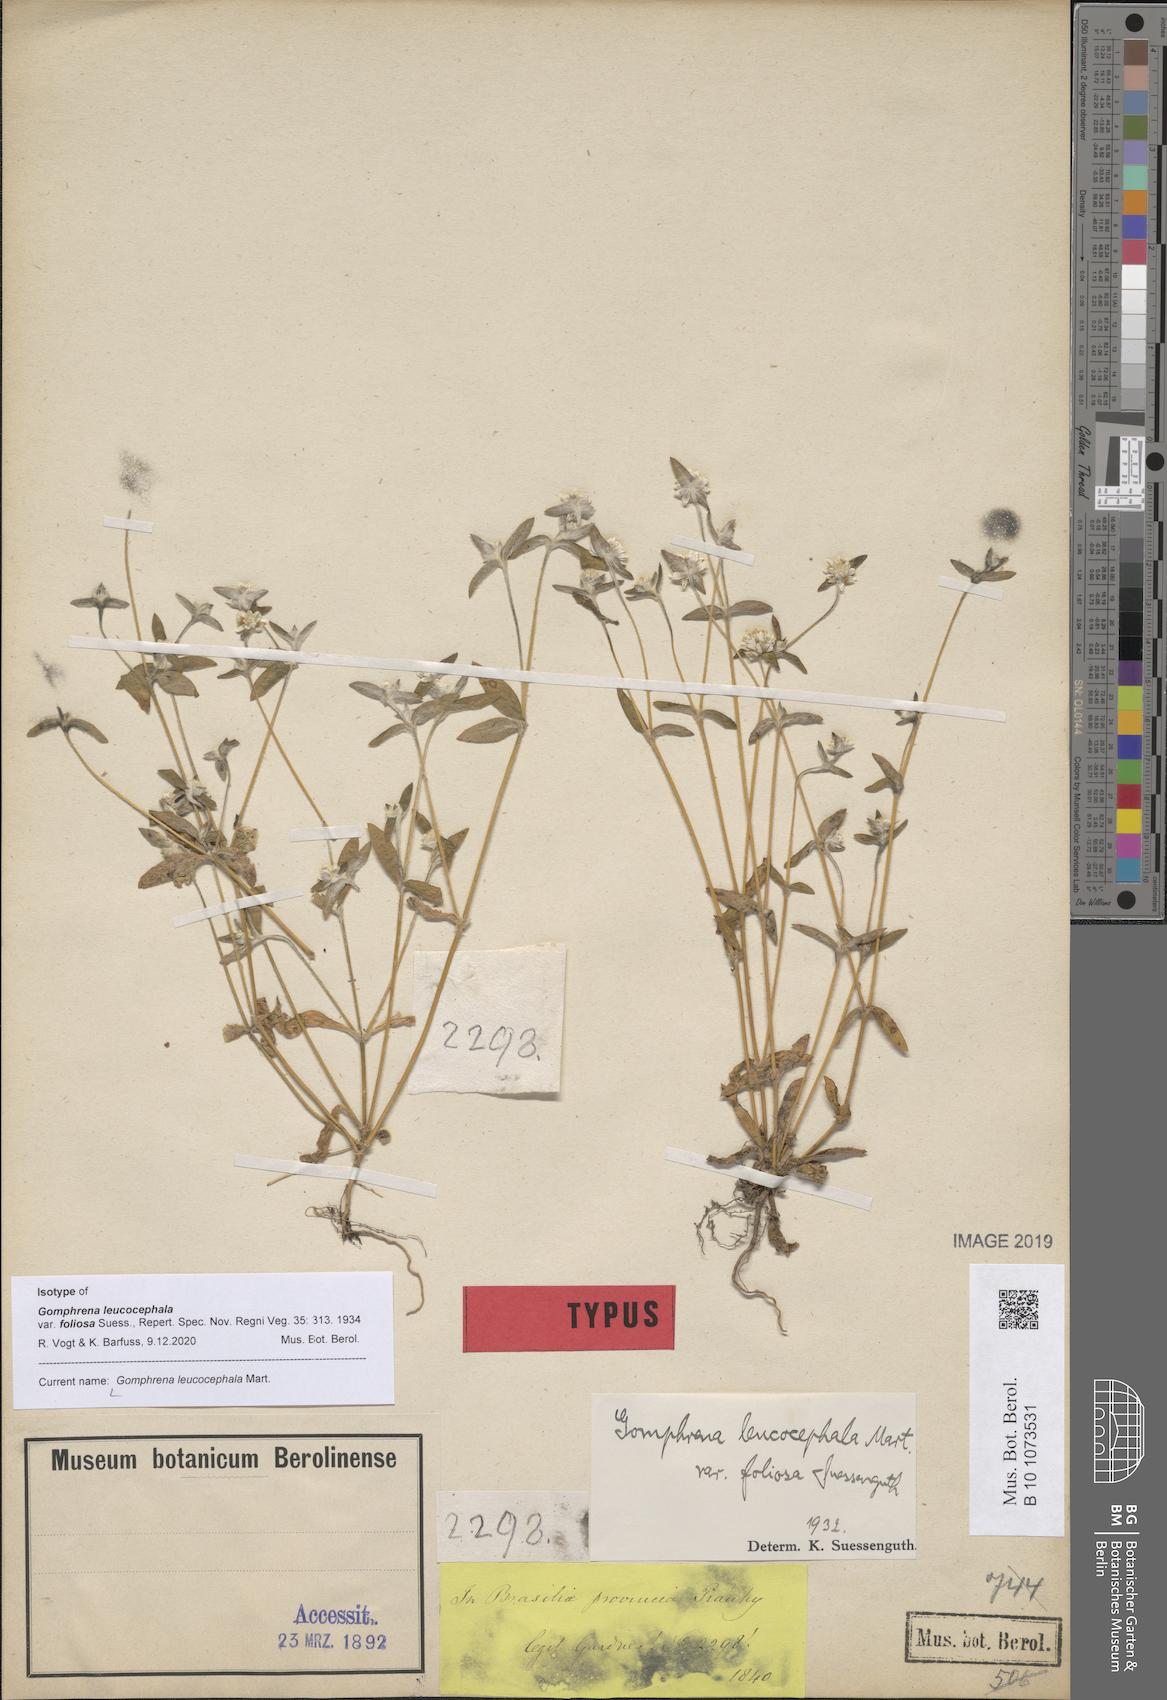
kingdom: Plantae
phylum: Tracheophyta
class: Magnoliopsida
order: Caryophyllales
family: Amaranthaceae
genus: Gomphrena
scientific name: Gomphrena leucocephala
